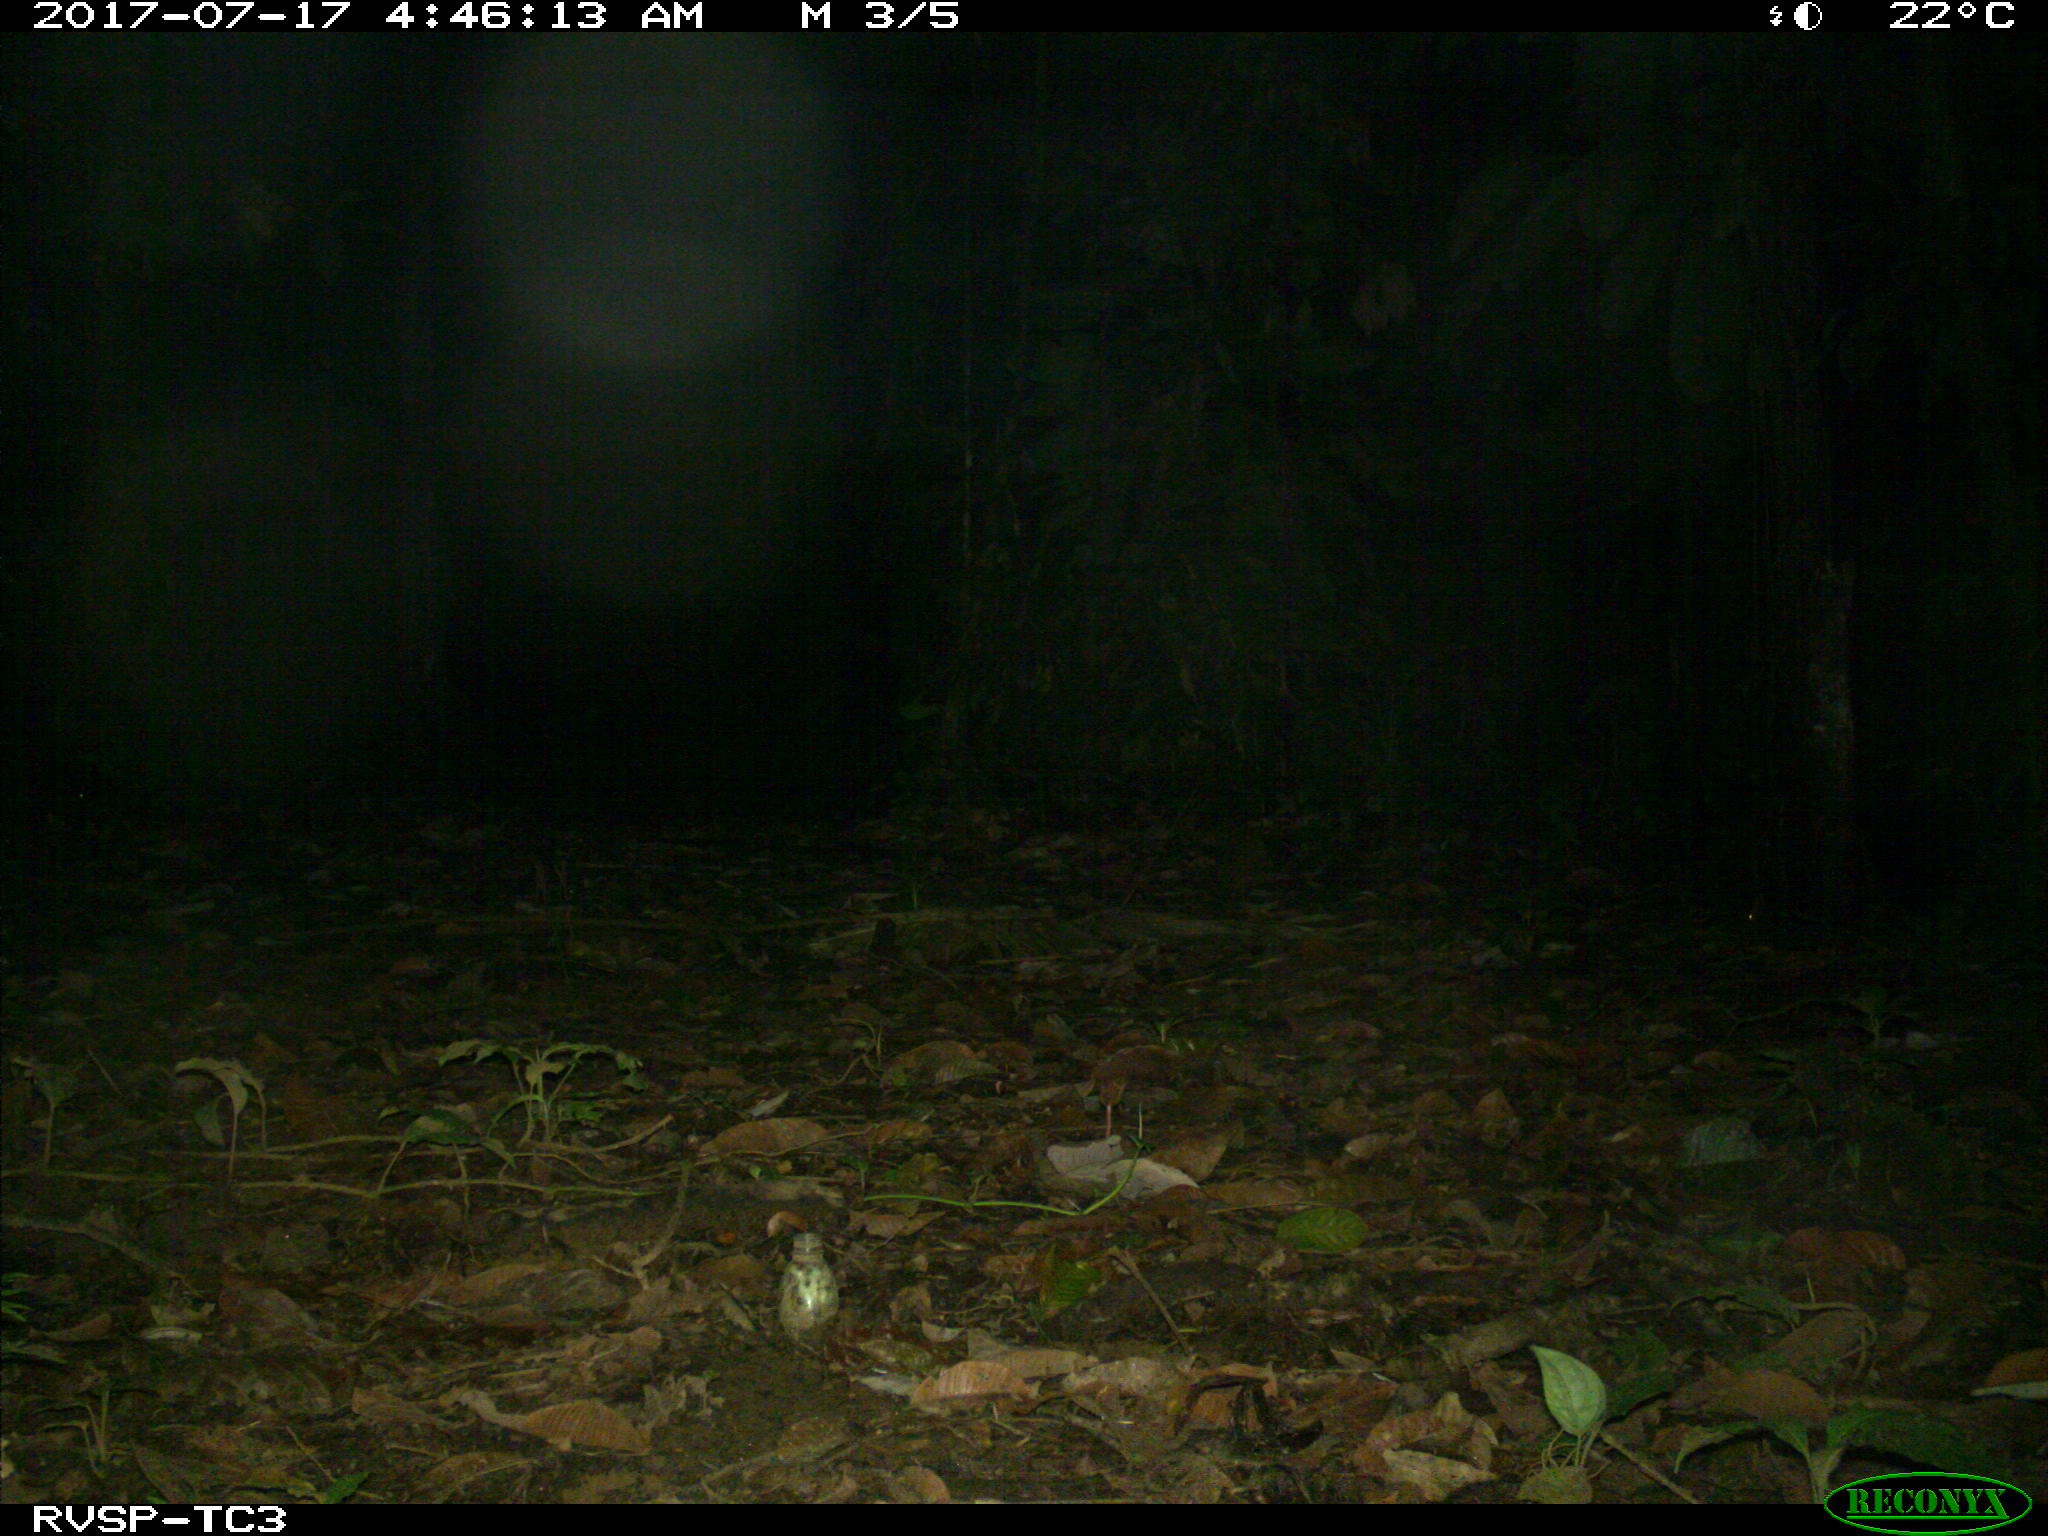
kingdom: Animalia
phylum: Chordata
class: Mammalia
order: Carnivora
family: Felidae
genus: Leopardus
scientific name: Leopardus pardalis
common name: Ocelot
